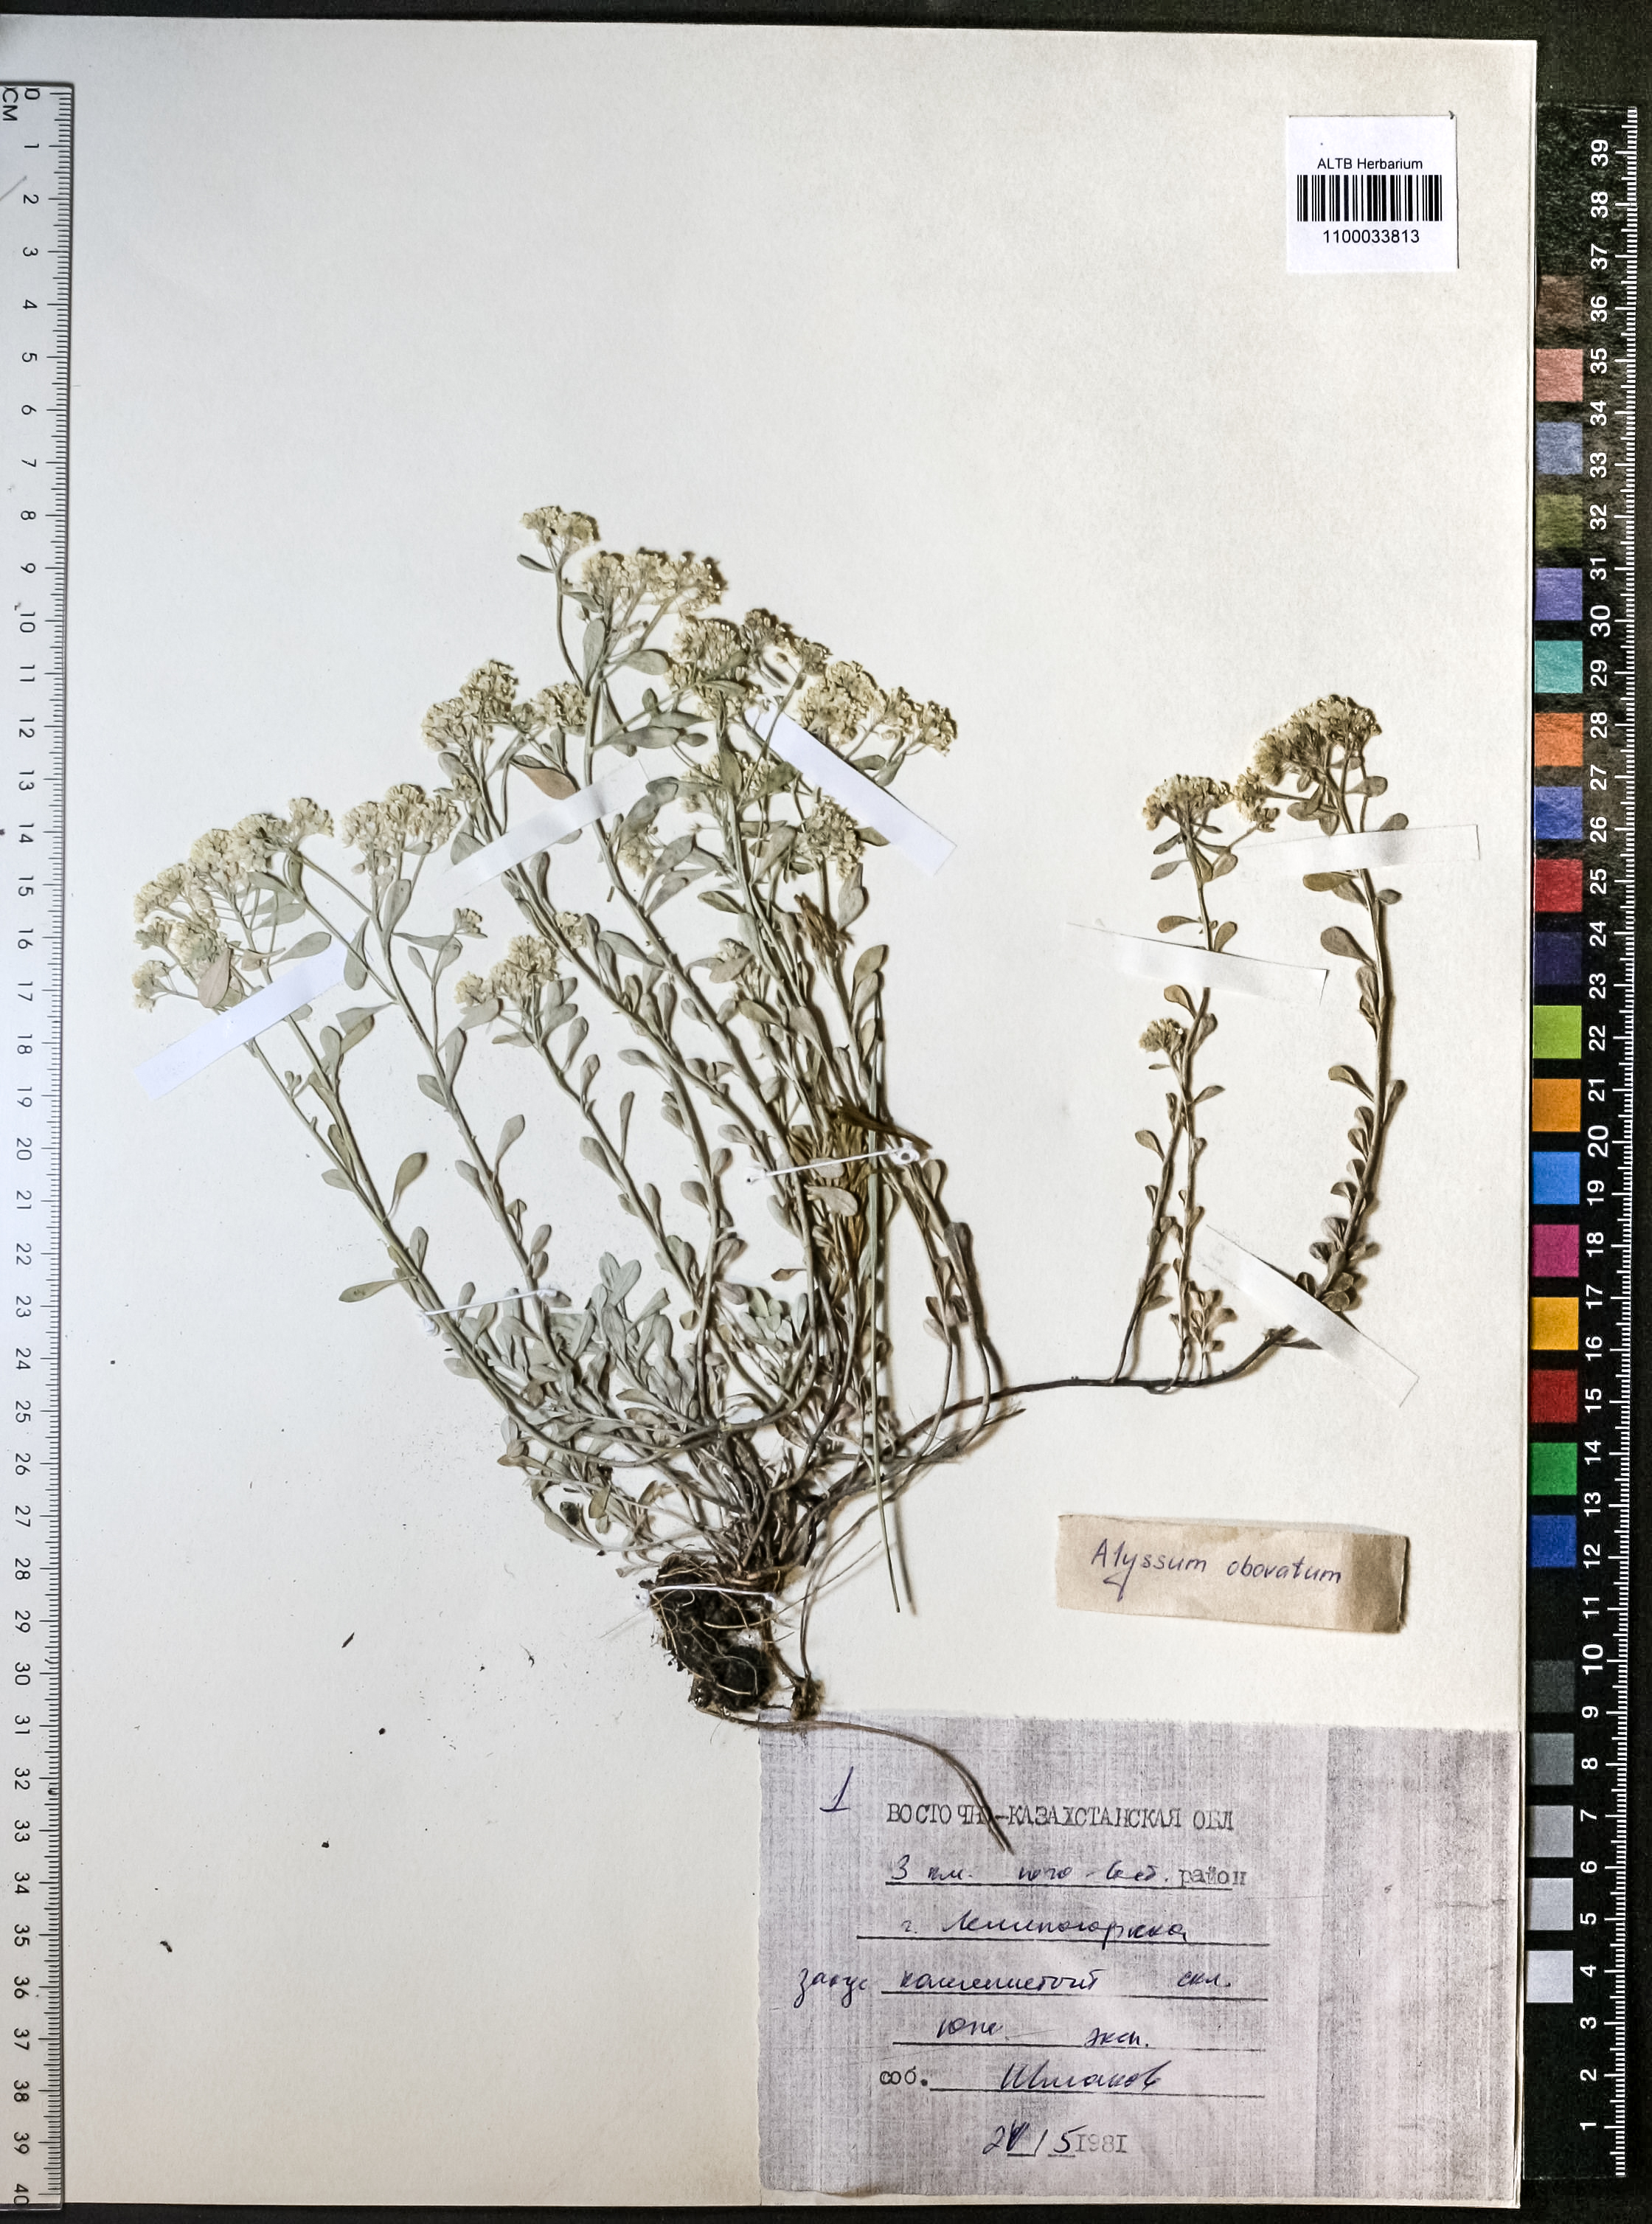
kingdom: Plantae
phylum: Tracheophyta
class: Magnoliopsida
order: Brassicales
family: Brassicaceae
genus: Odontarrhena
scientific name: Odontarrhena obovata
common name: American alyssum
